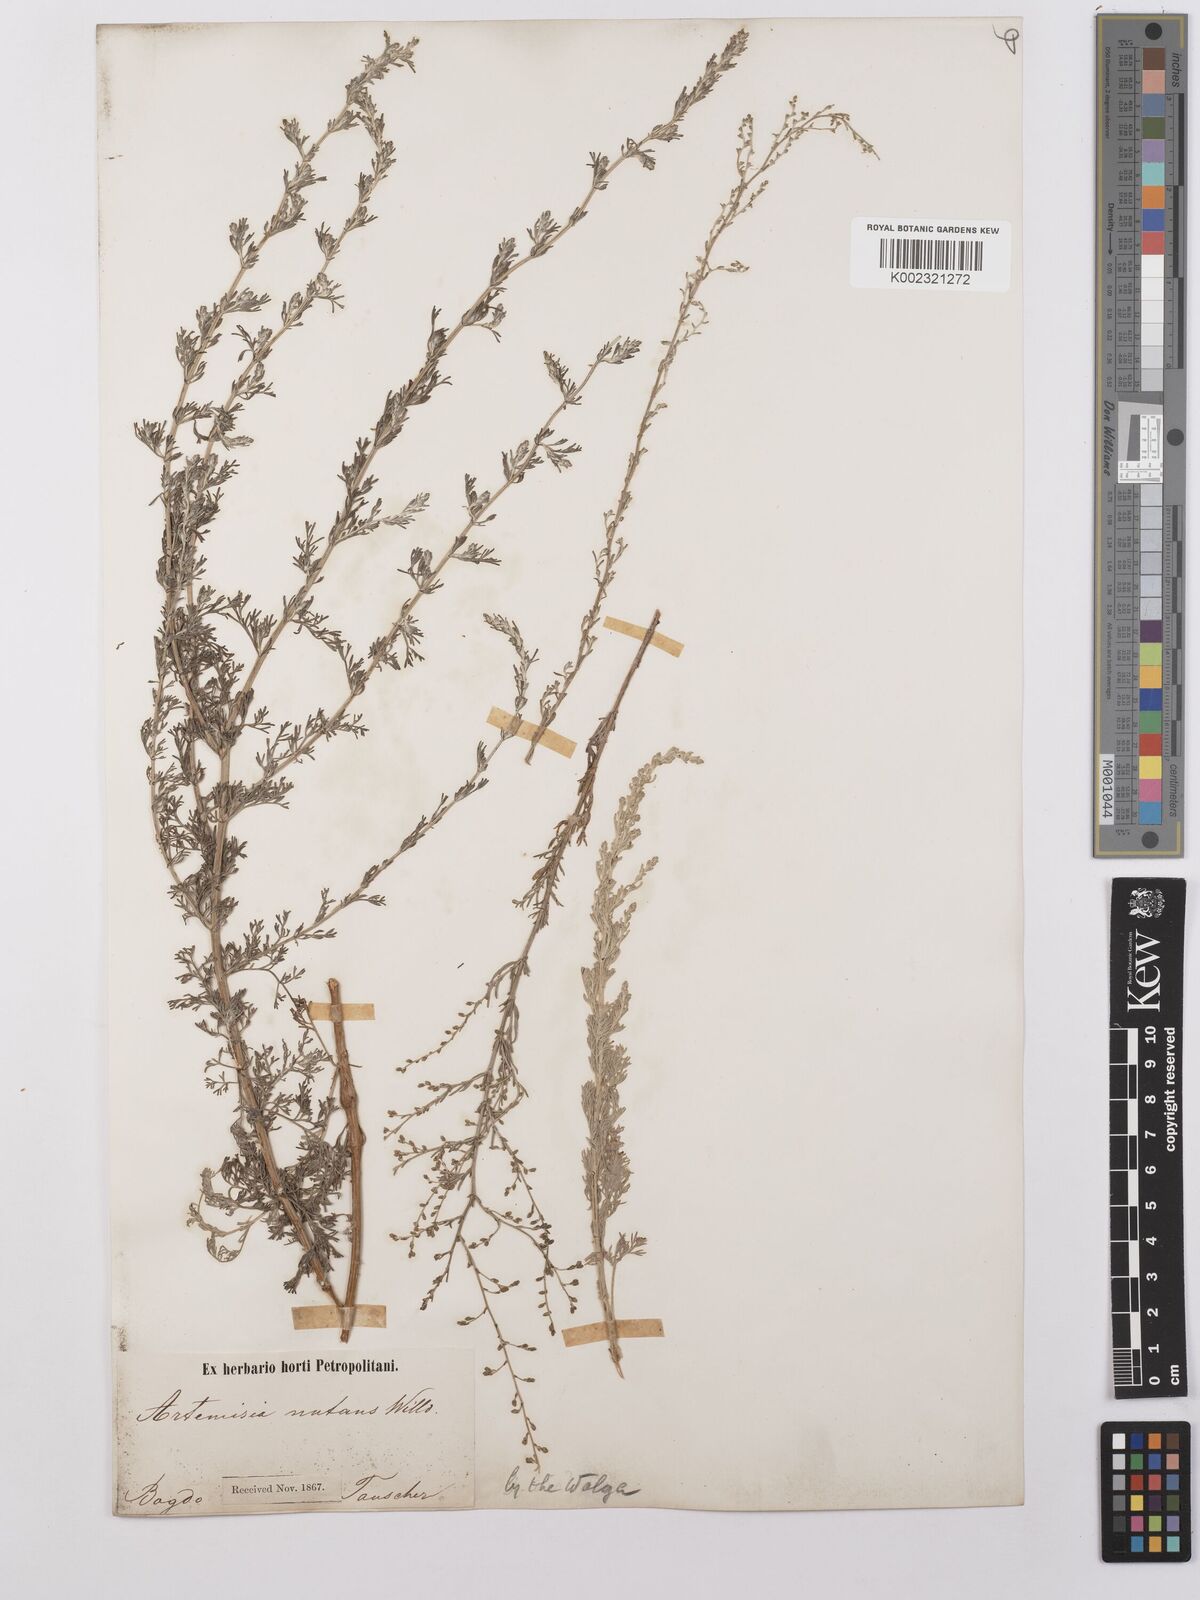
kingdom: Plantae
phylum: Tracheophyta
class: Magnoliopsida
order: Asterales
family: Asteraceae
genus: Artemisia
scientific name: Artemisia nutans
